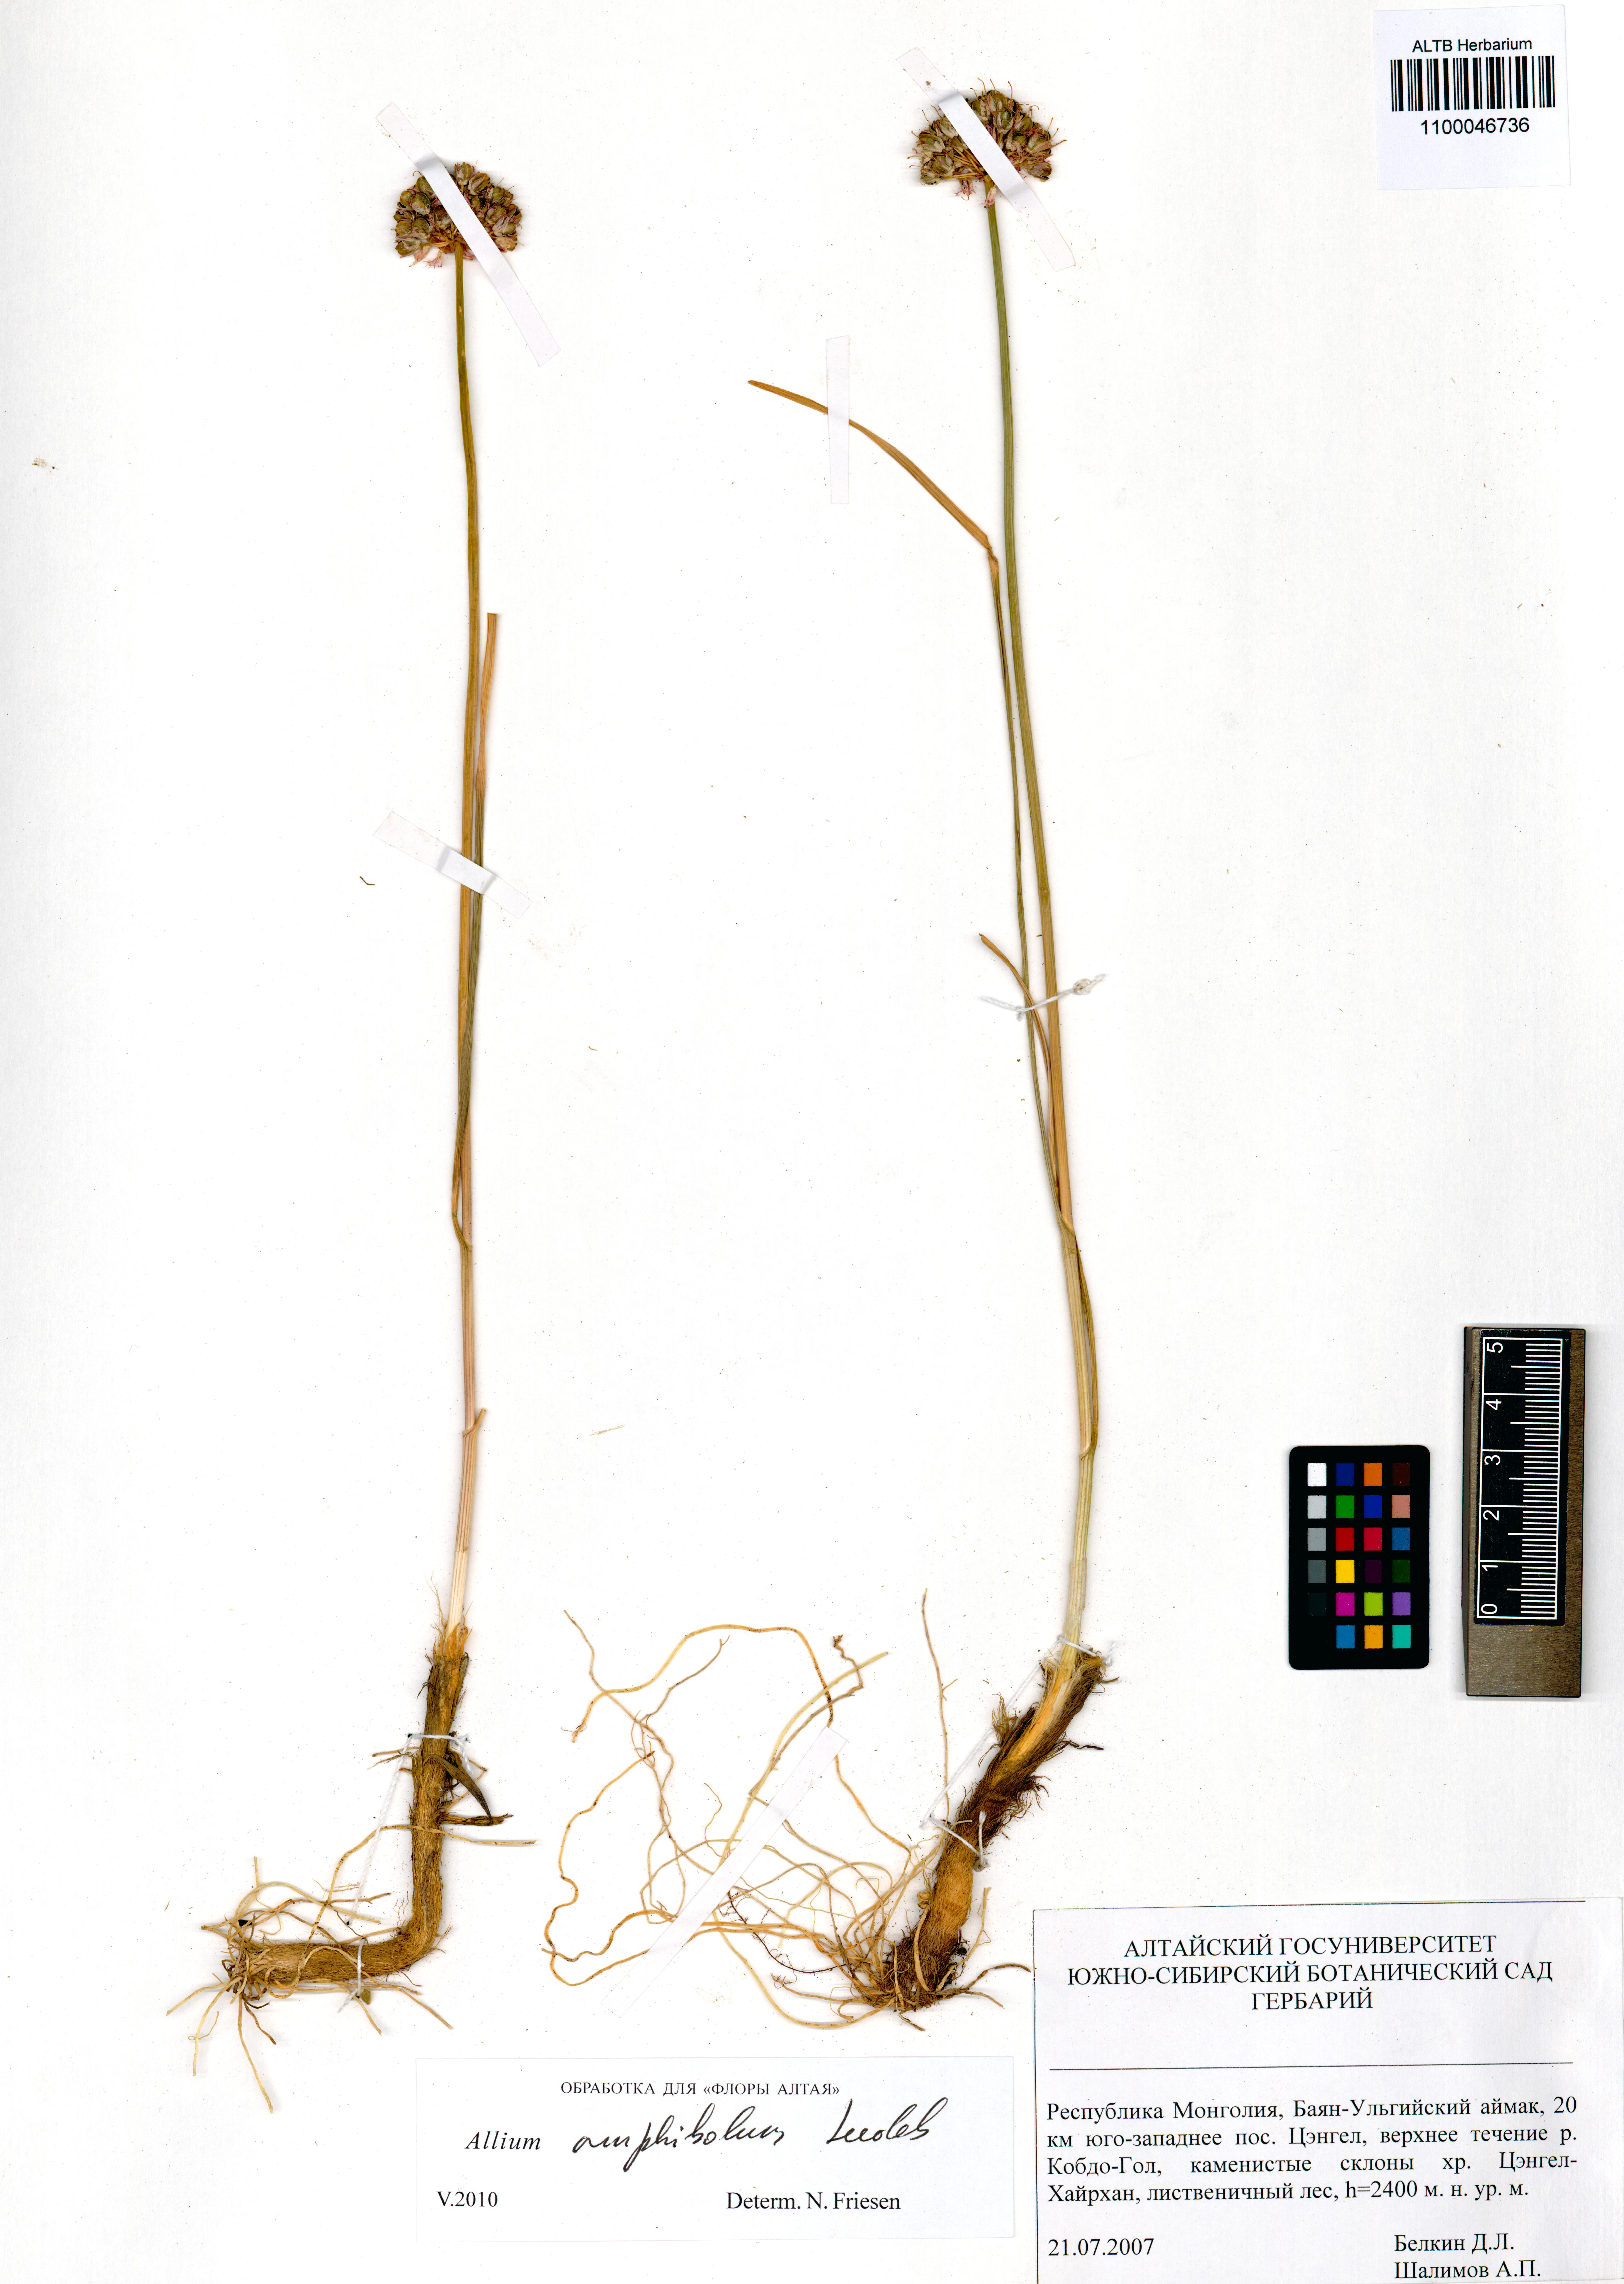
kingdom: Plantae
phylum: Tracheophyta
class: Liliopsida
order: Asparagales
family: Amaryllidaceae
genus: Allium
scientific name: Allium amphibolum
